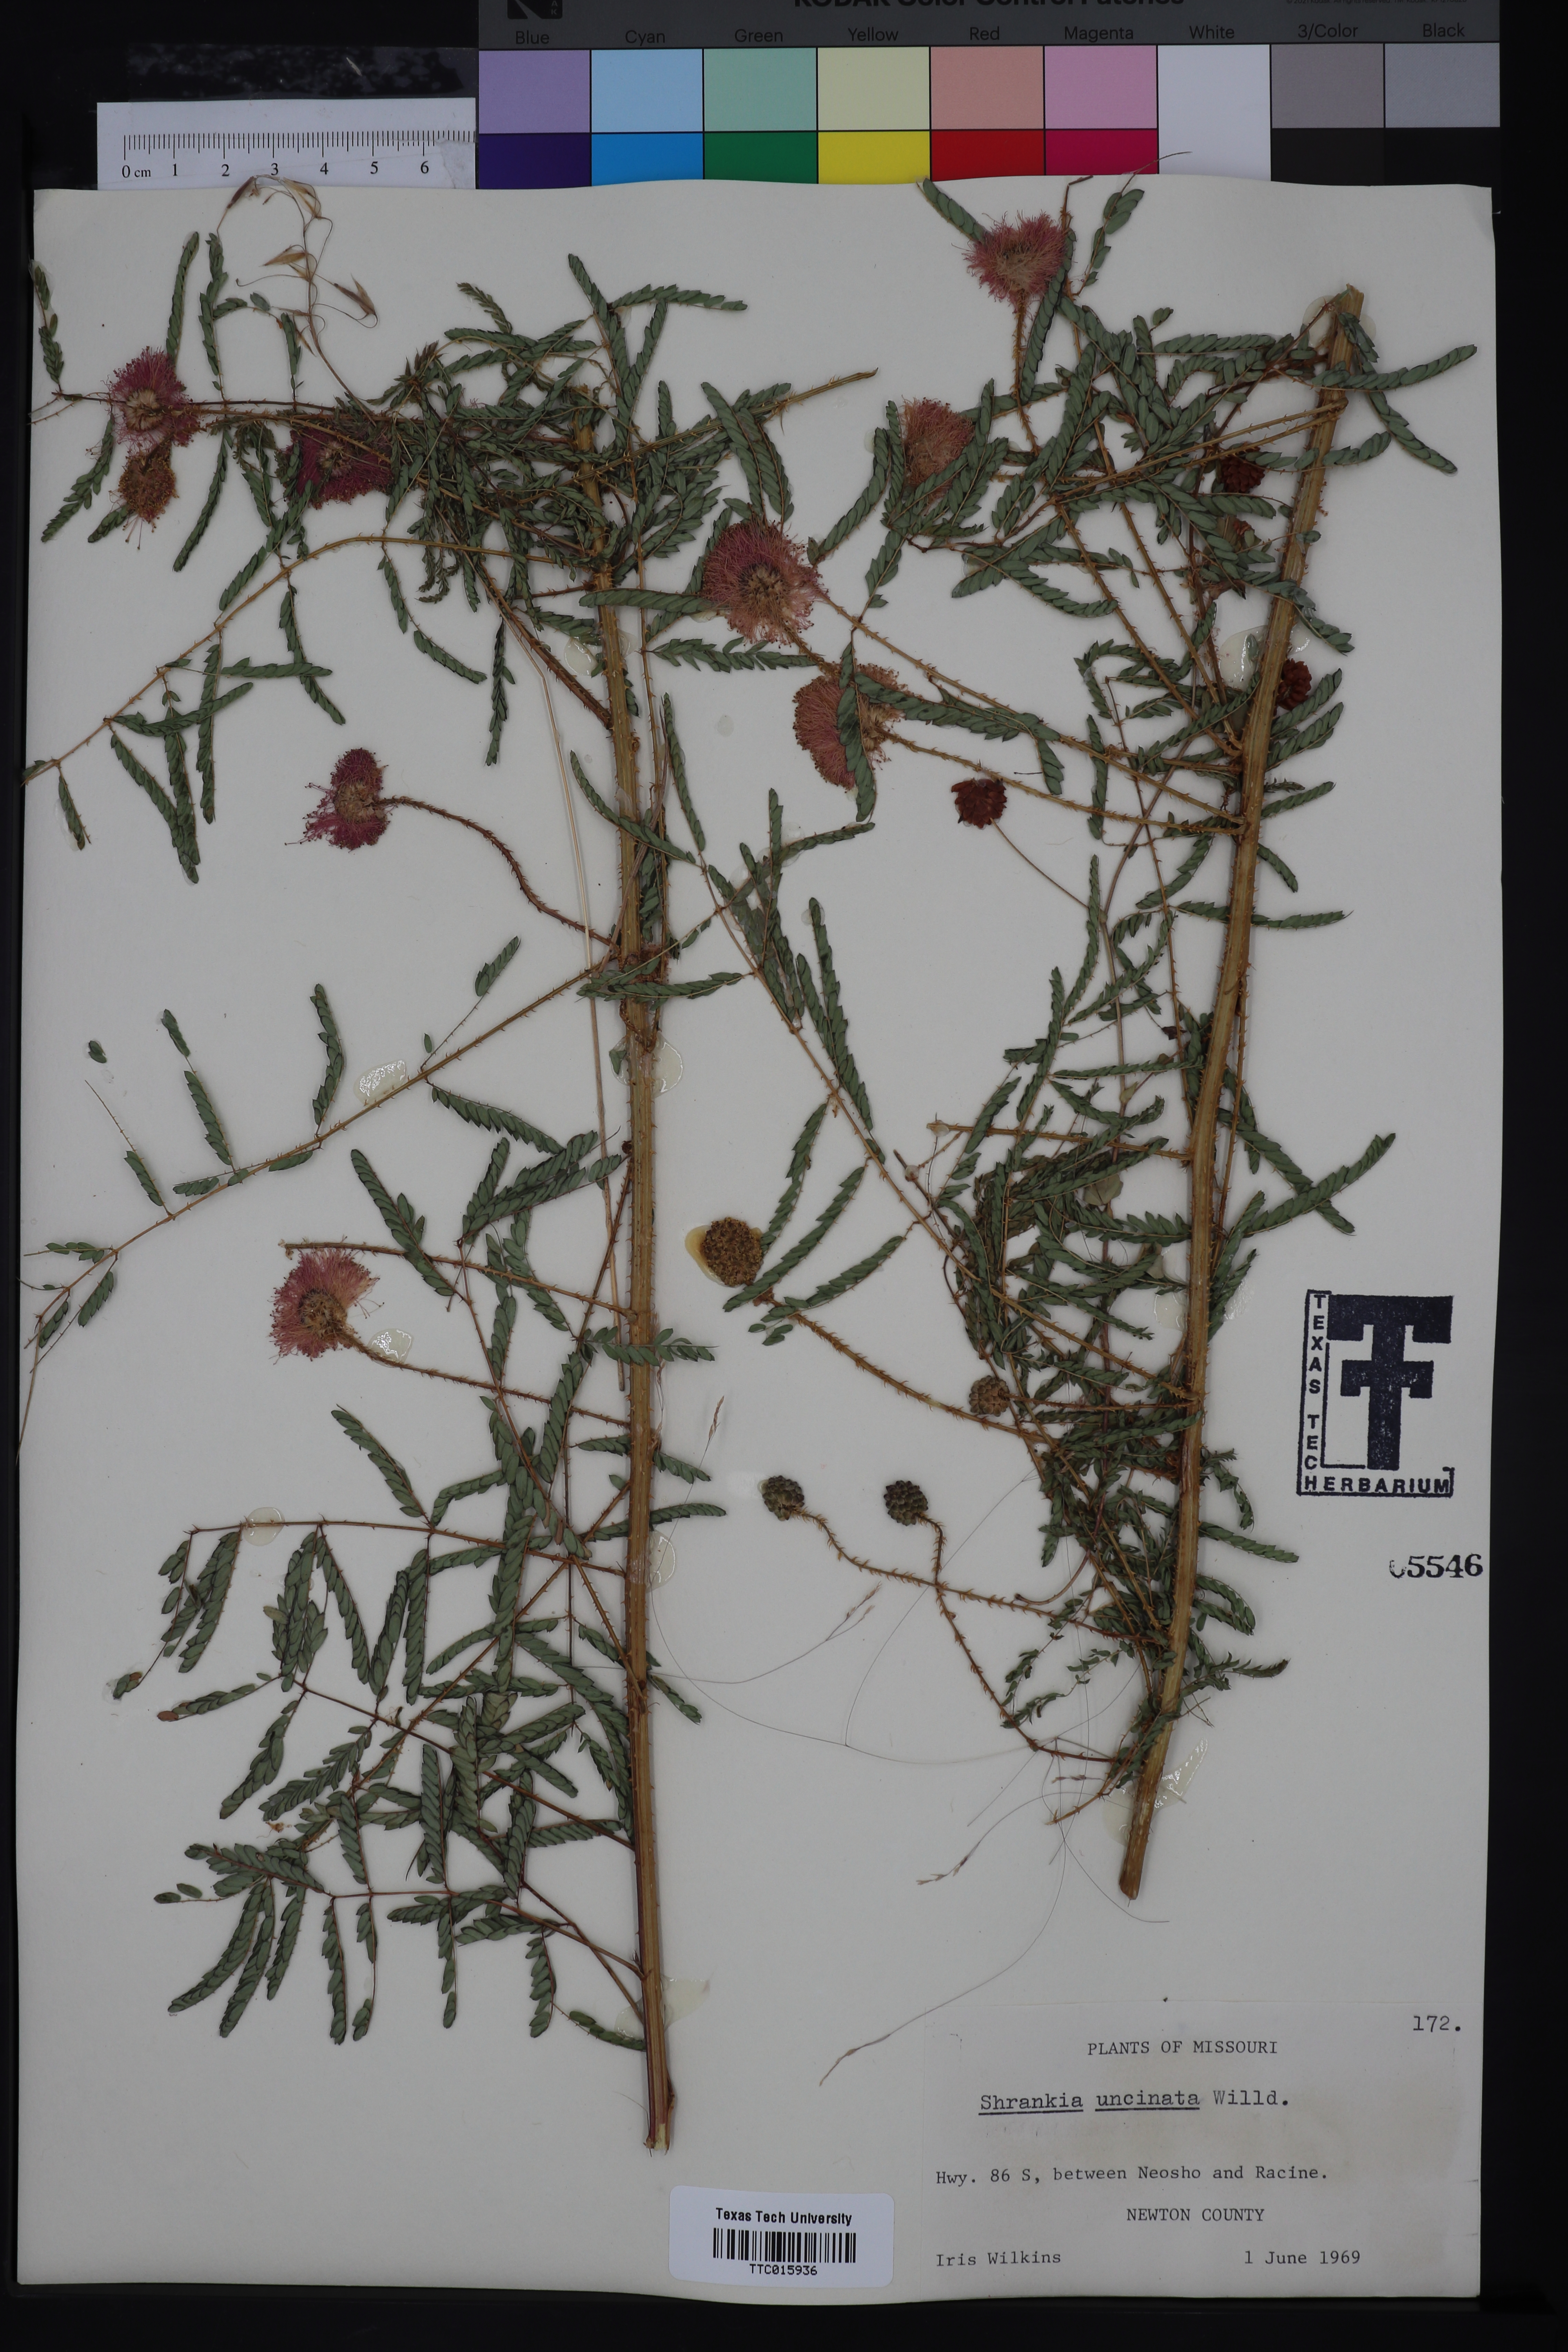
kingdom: Plantae
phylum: Tracheophyta
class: Magnoliopsida
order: Fabales
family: Fabaceae
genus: Mimosa
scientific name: Mimosa quadrivalvis
